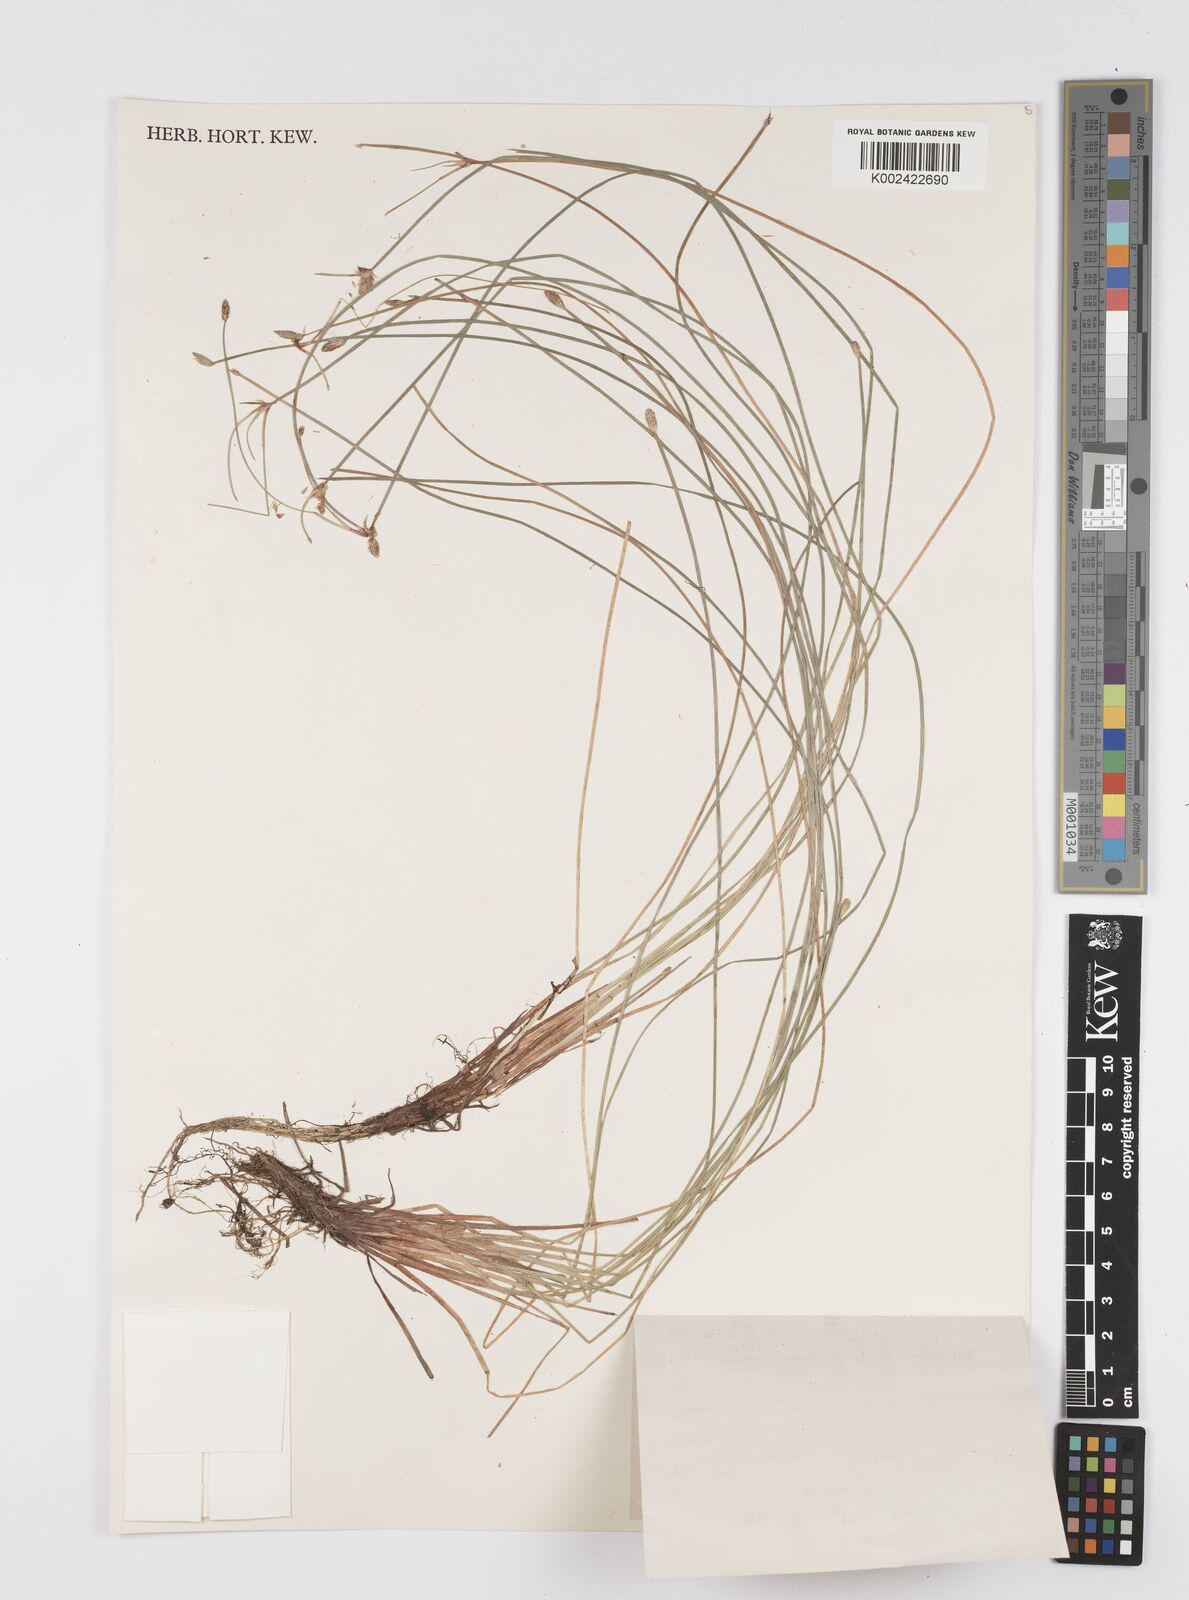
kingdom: Plantae
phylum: Tracheophyta
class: Liliopsida
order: Poales
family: Cyperaceae
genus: Eleocharis
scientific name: Eleocharis congesta
